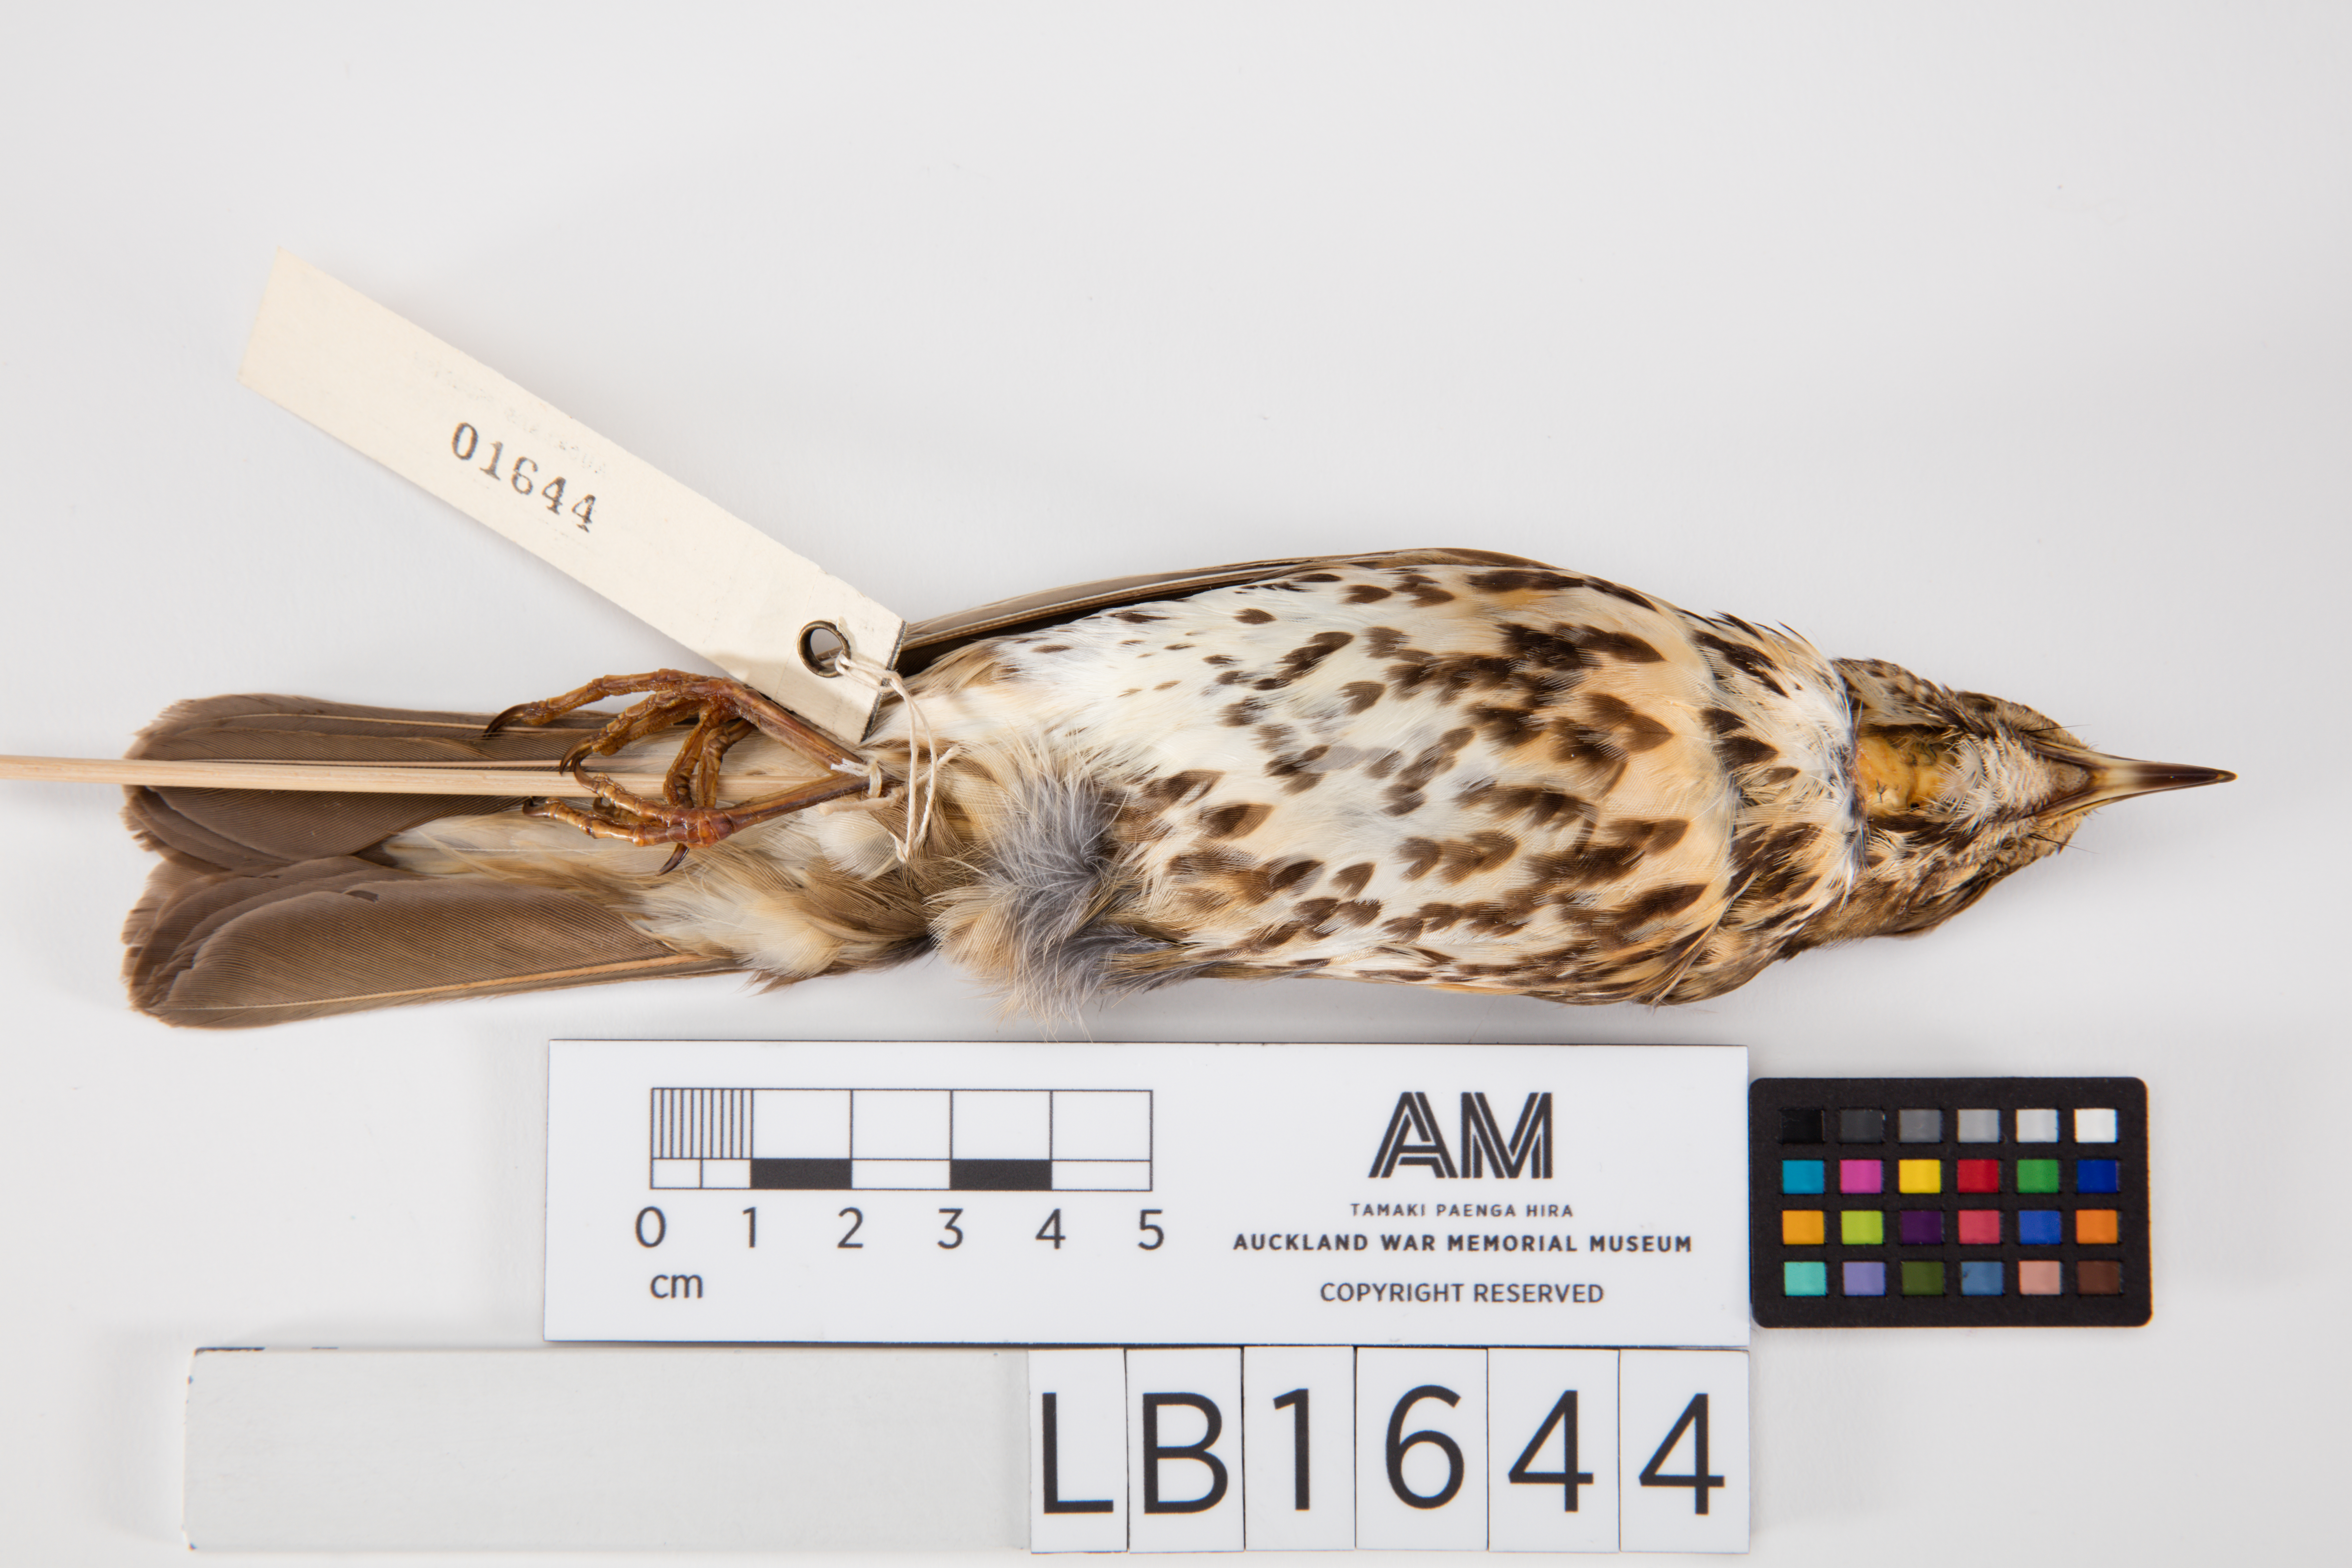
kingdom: Animalia
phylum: Chordata
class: Aves
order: Passeriformes
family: Turdidae
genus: Turdus
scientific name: Turdus philomelos
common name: Song thrush
